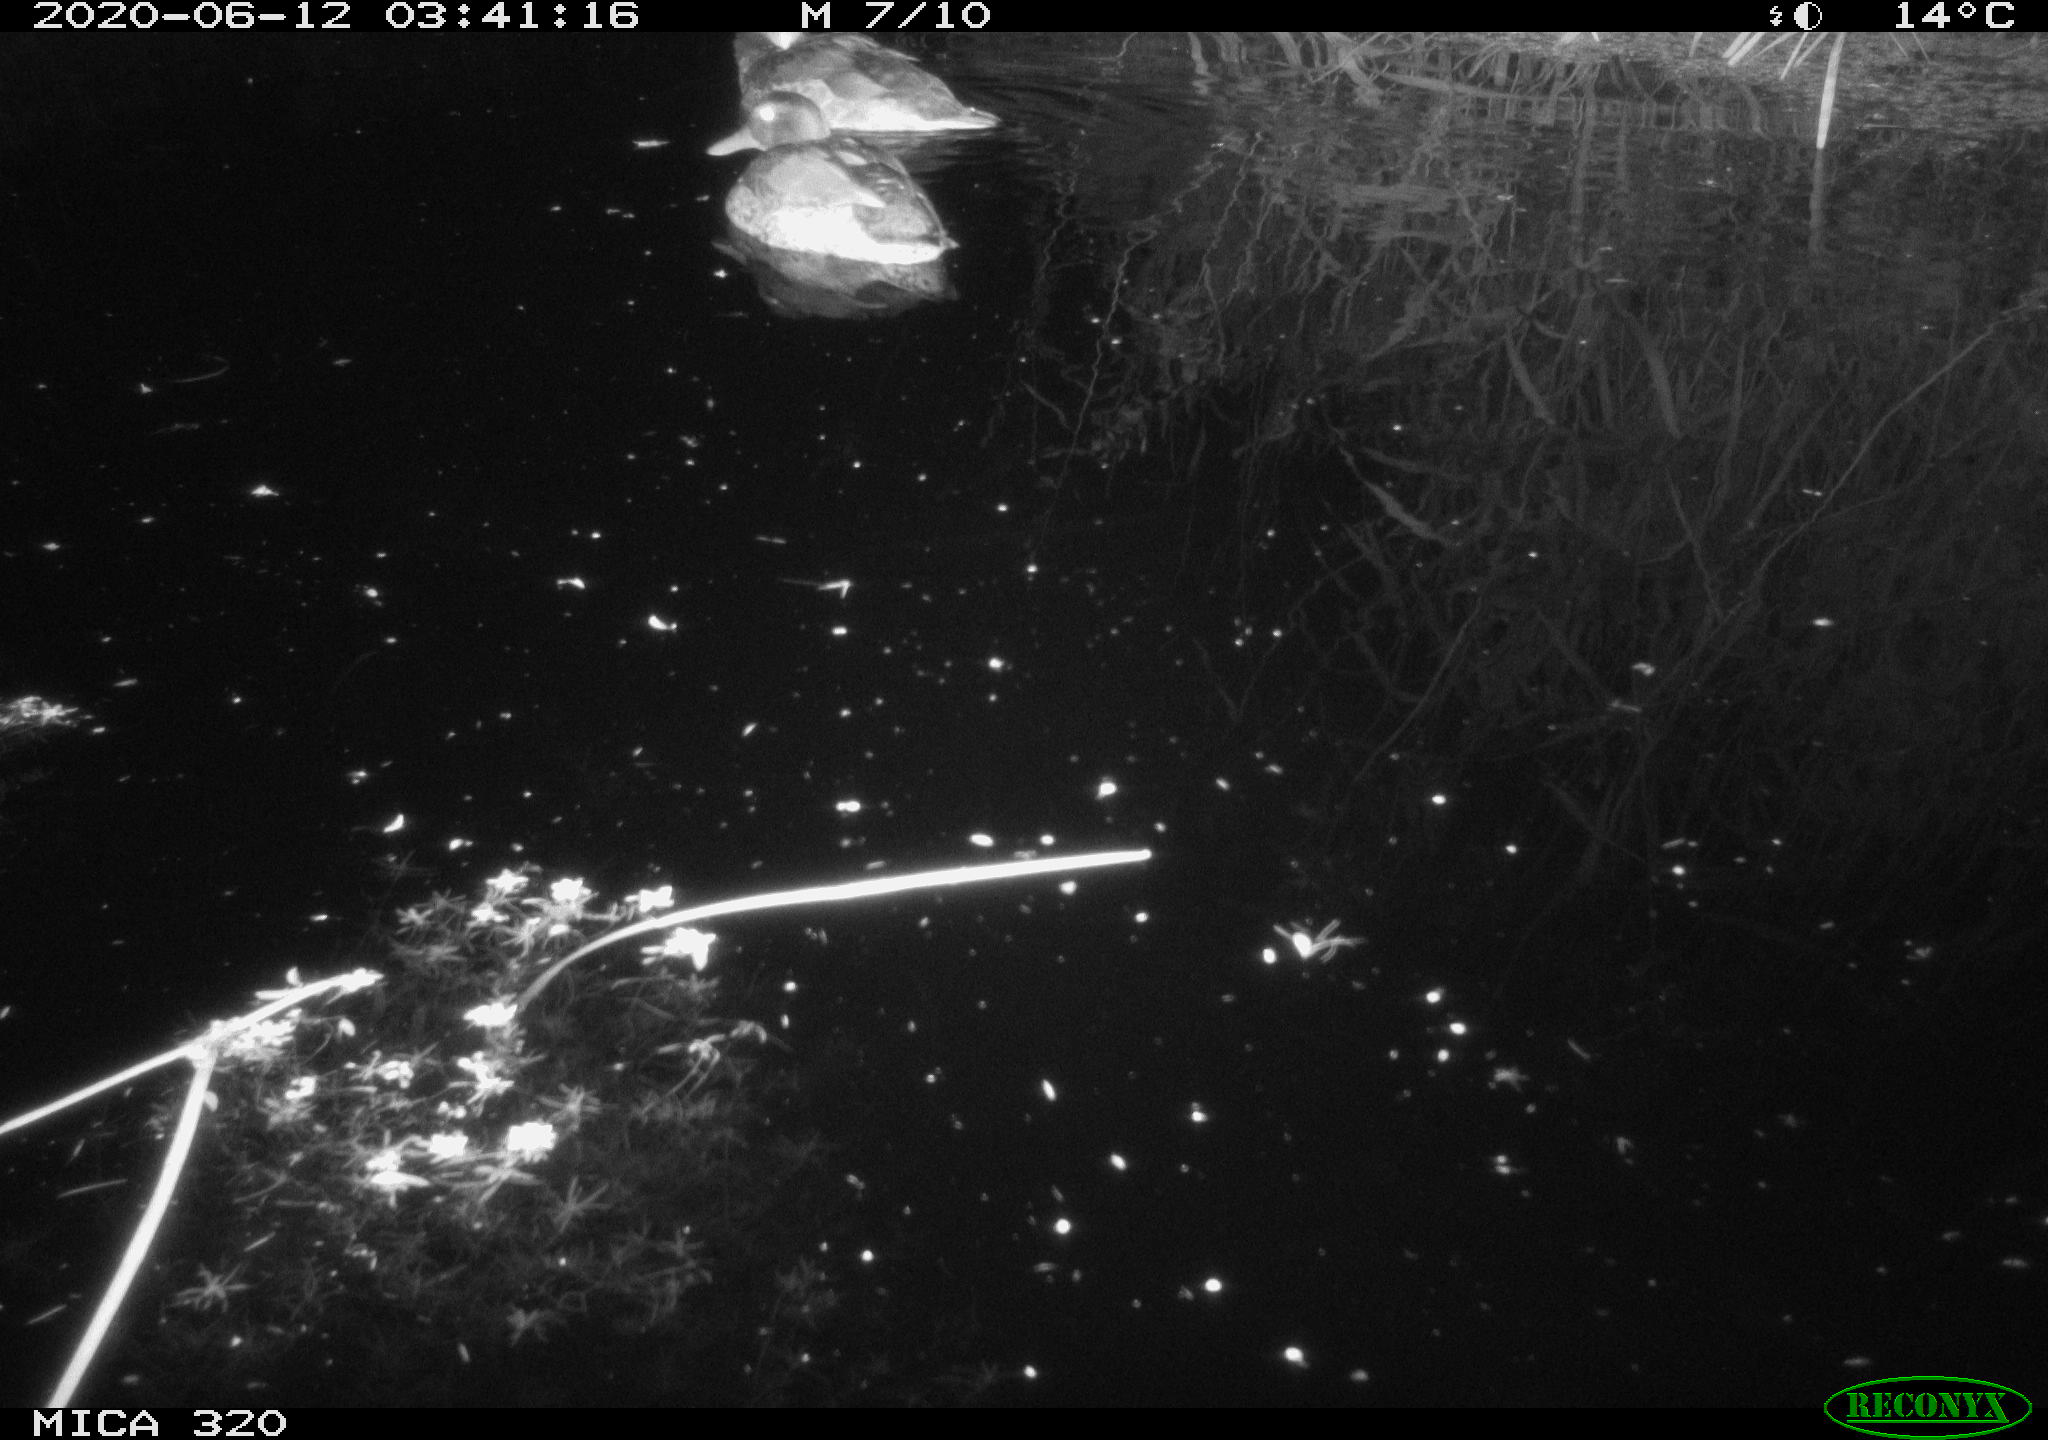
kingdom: Animalia
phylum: Chordata
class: Aves
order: Anseriformes
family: Anatidae
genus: Anas
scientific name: Anas platyrhynchos
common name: Mallard
